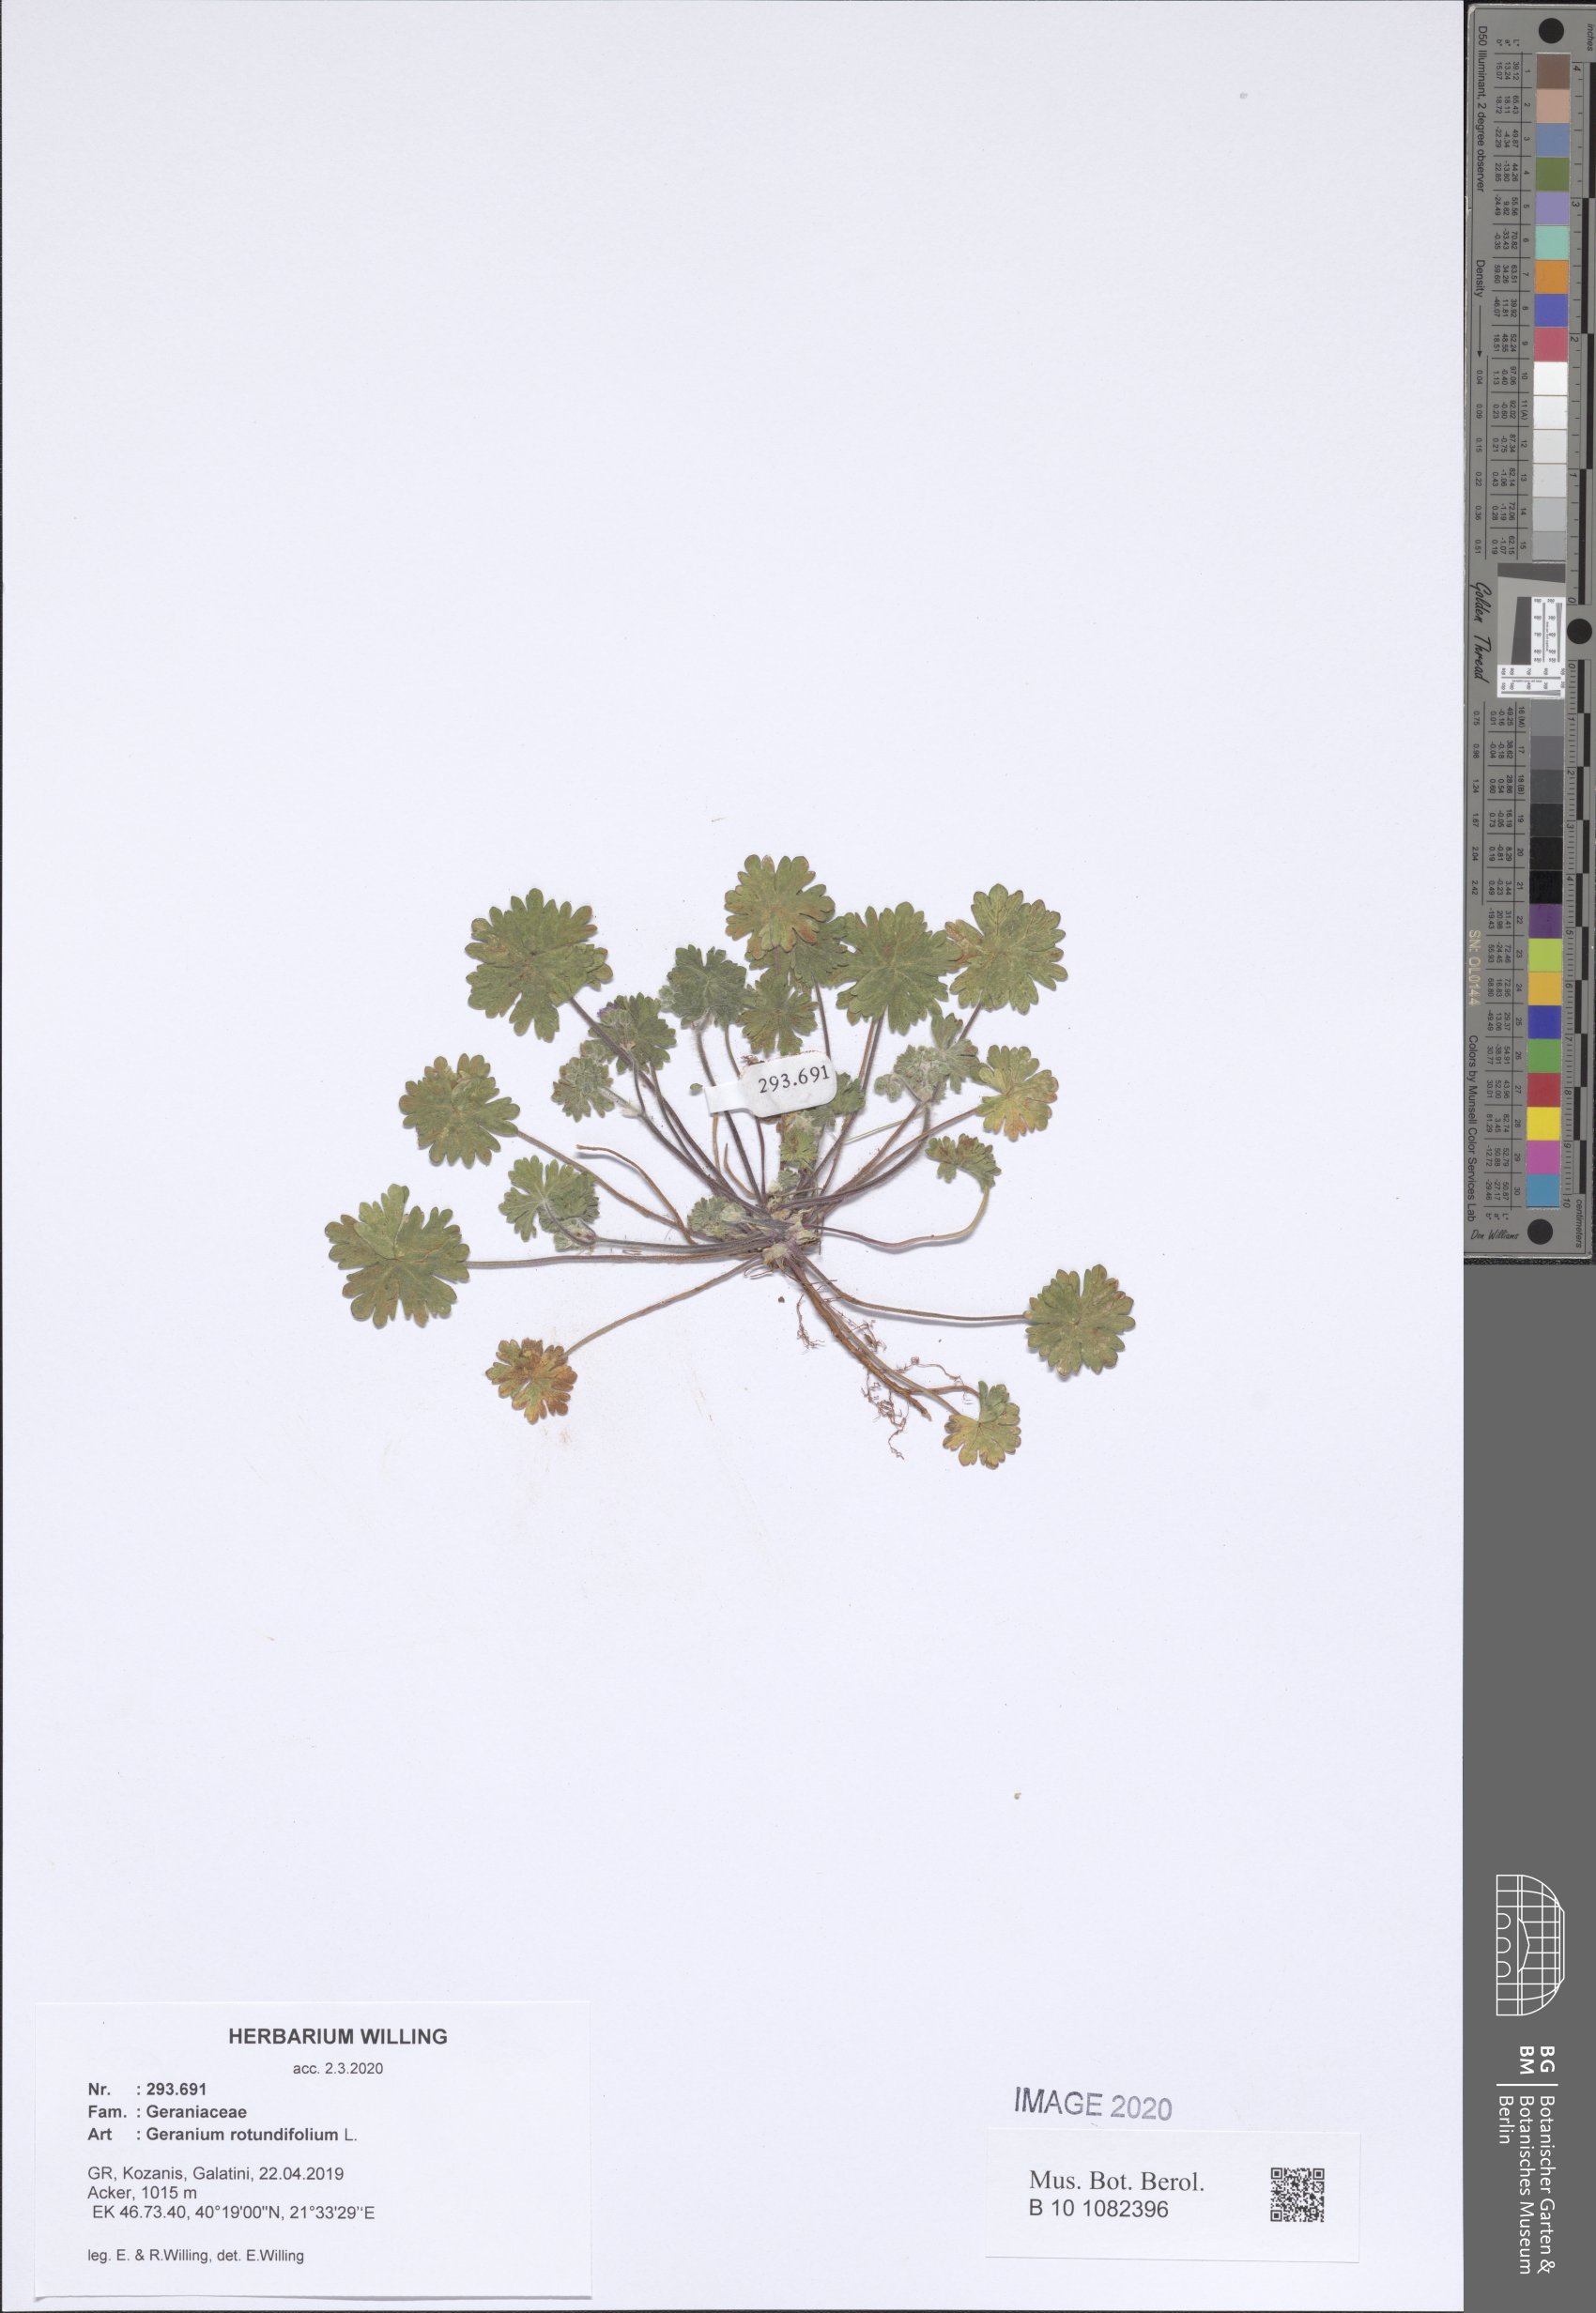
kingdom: Plantae
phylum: Tracheophyta
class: Magnoliopsida
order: Geraniales
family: Geraniaceae
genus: Geranium
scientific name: Geranium rotundifolium
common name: Round-leaved crane's-bill
